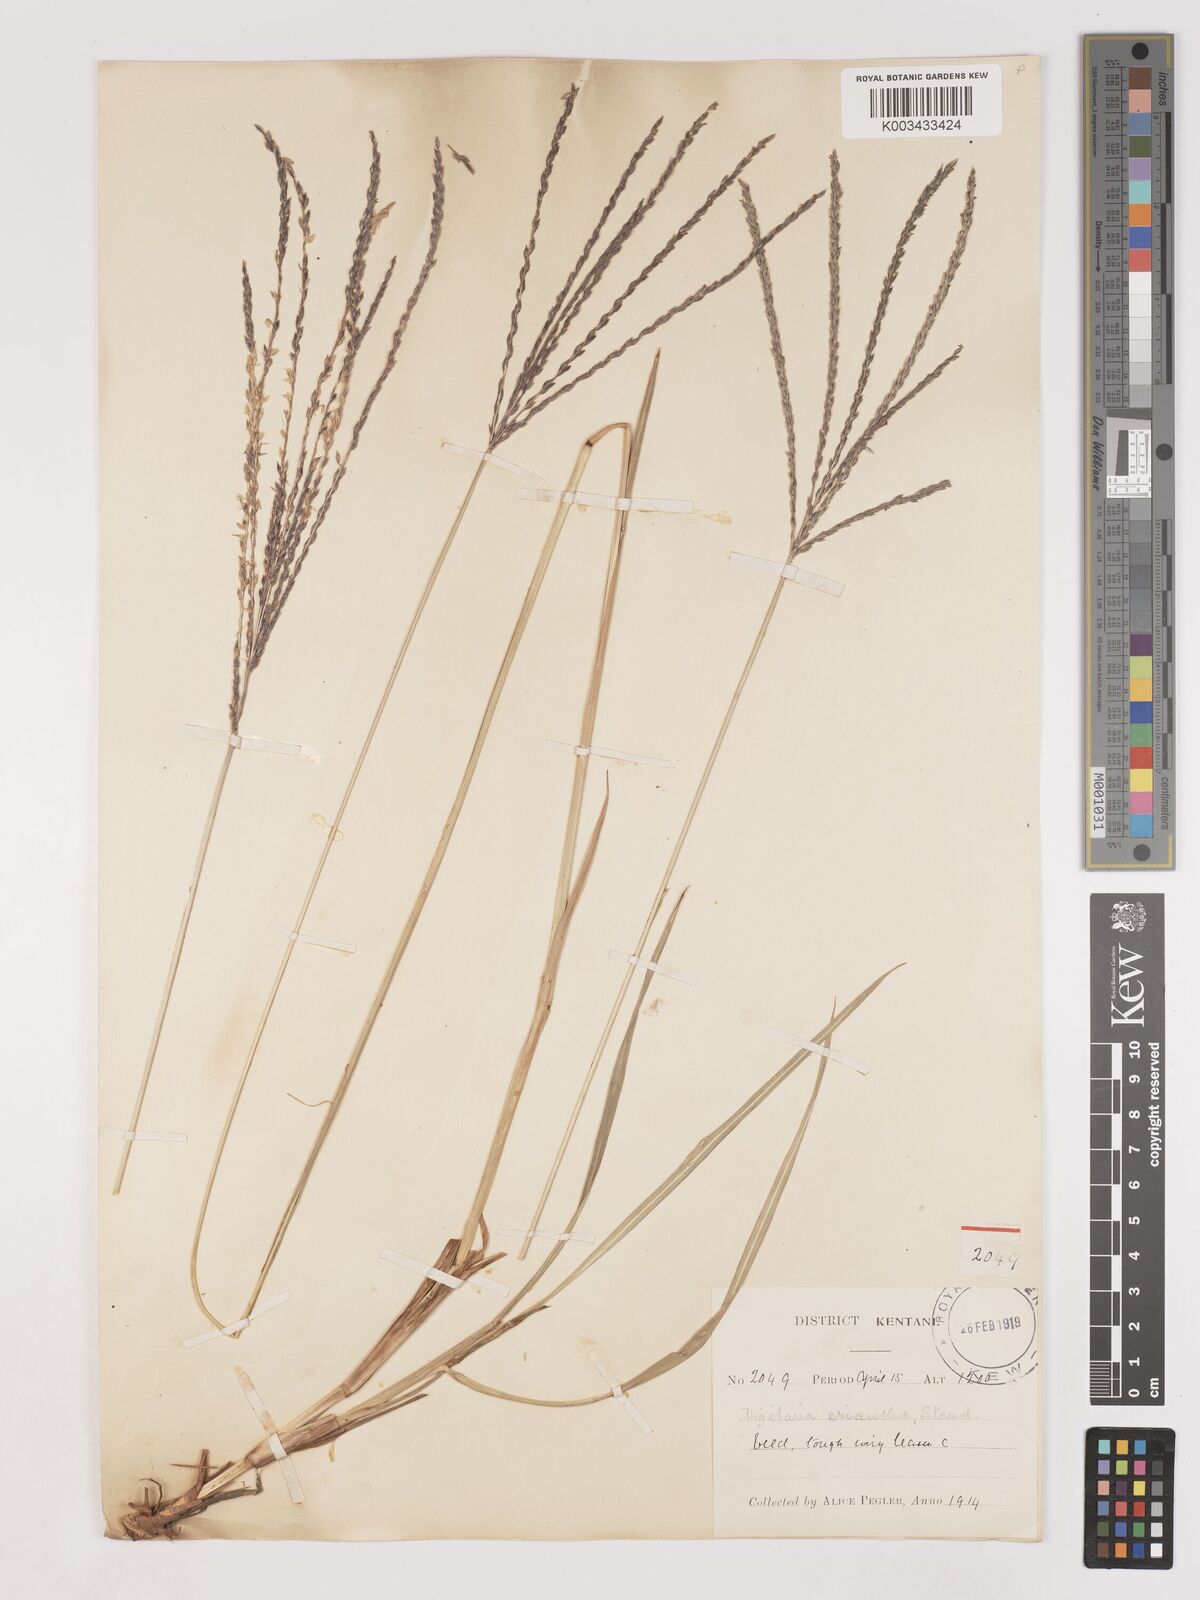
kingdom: Plantae
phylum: Tracheophyta
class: Liliopsida
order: Poales
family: Poaceae
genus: Digitaria
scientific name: Digitaria eriantha
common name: Digitgrass
